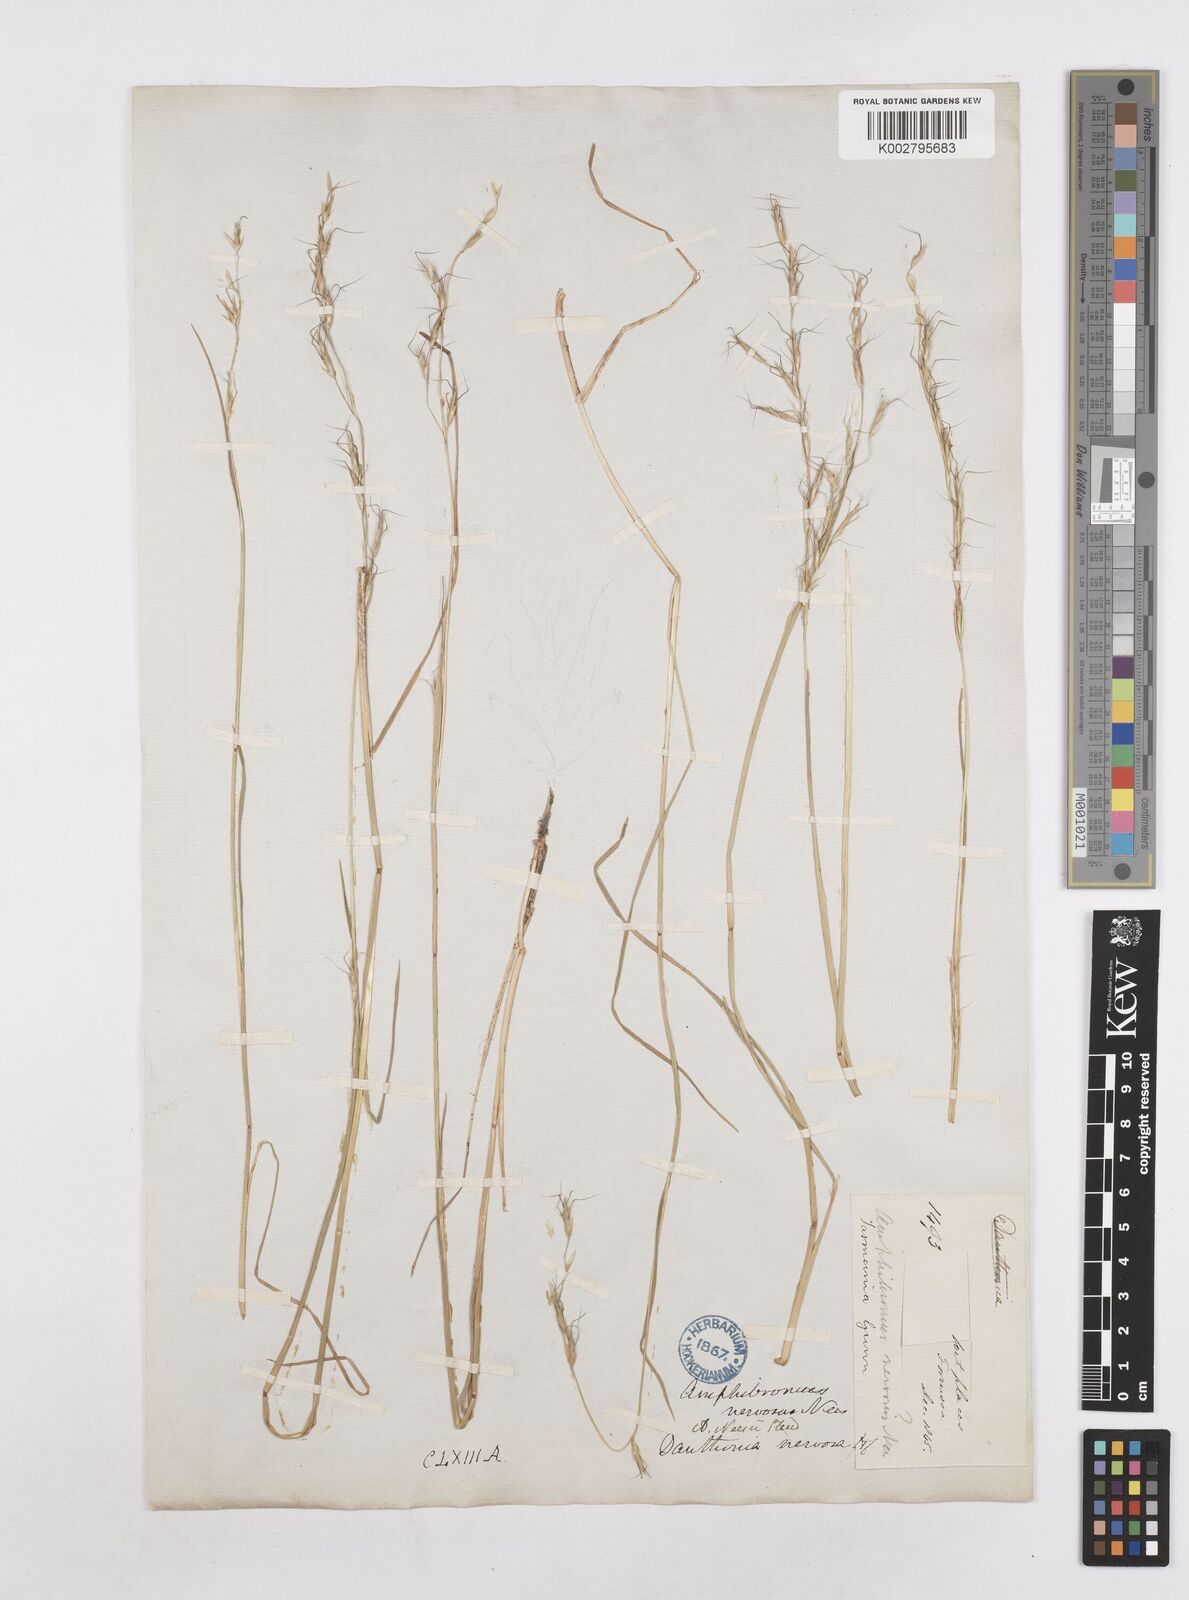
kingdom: Plantae
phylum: Tracheophyta
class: Liliopsida
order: Poales
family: Poaceae
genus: Amphibromus
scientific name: Amphibromus neesii
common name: Australian wallaby grass
